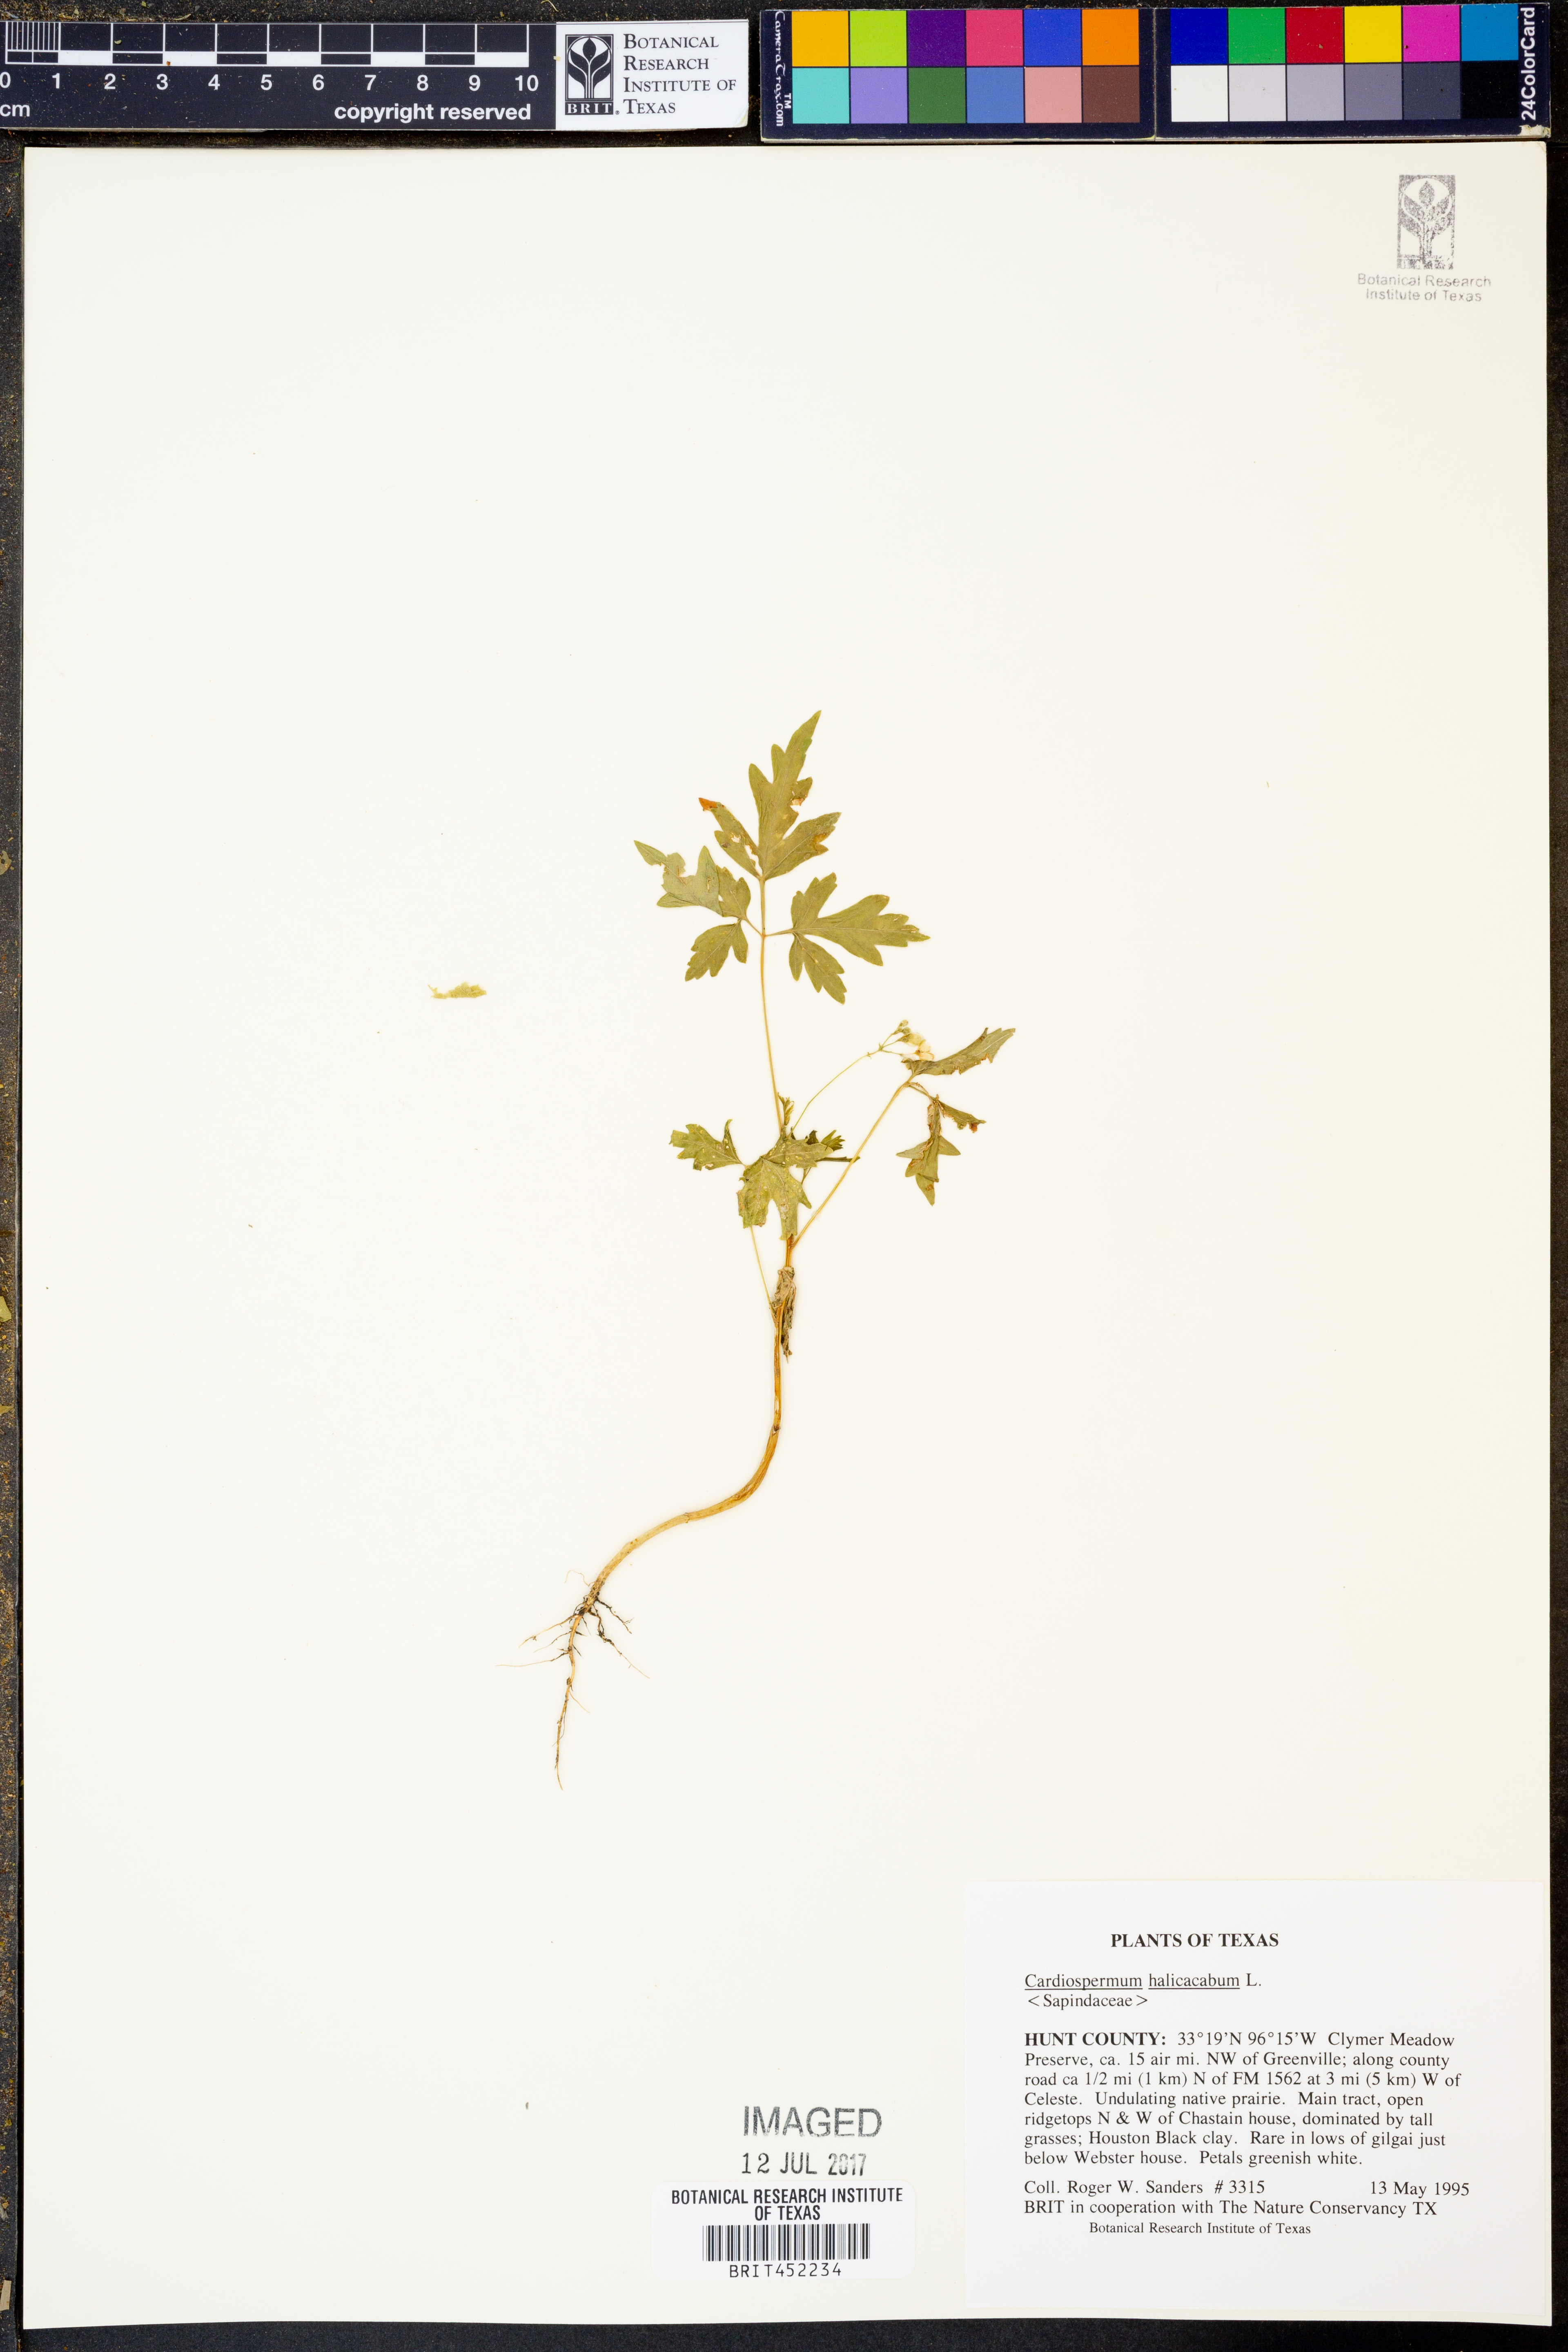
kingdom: Plantae
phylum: Tracheophyta
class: Magnoliopsida
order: Sapindales
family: Sapindaceae
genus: Cardiospermum
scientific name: Cardiospermum halicacabum
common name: Balloon vine
